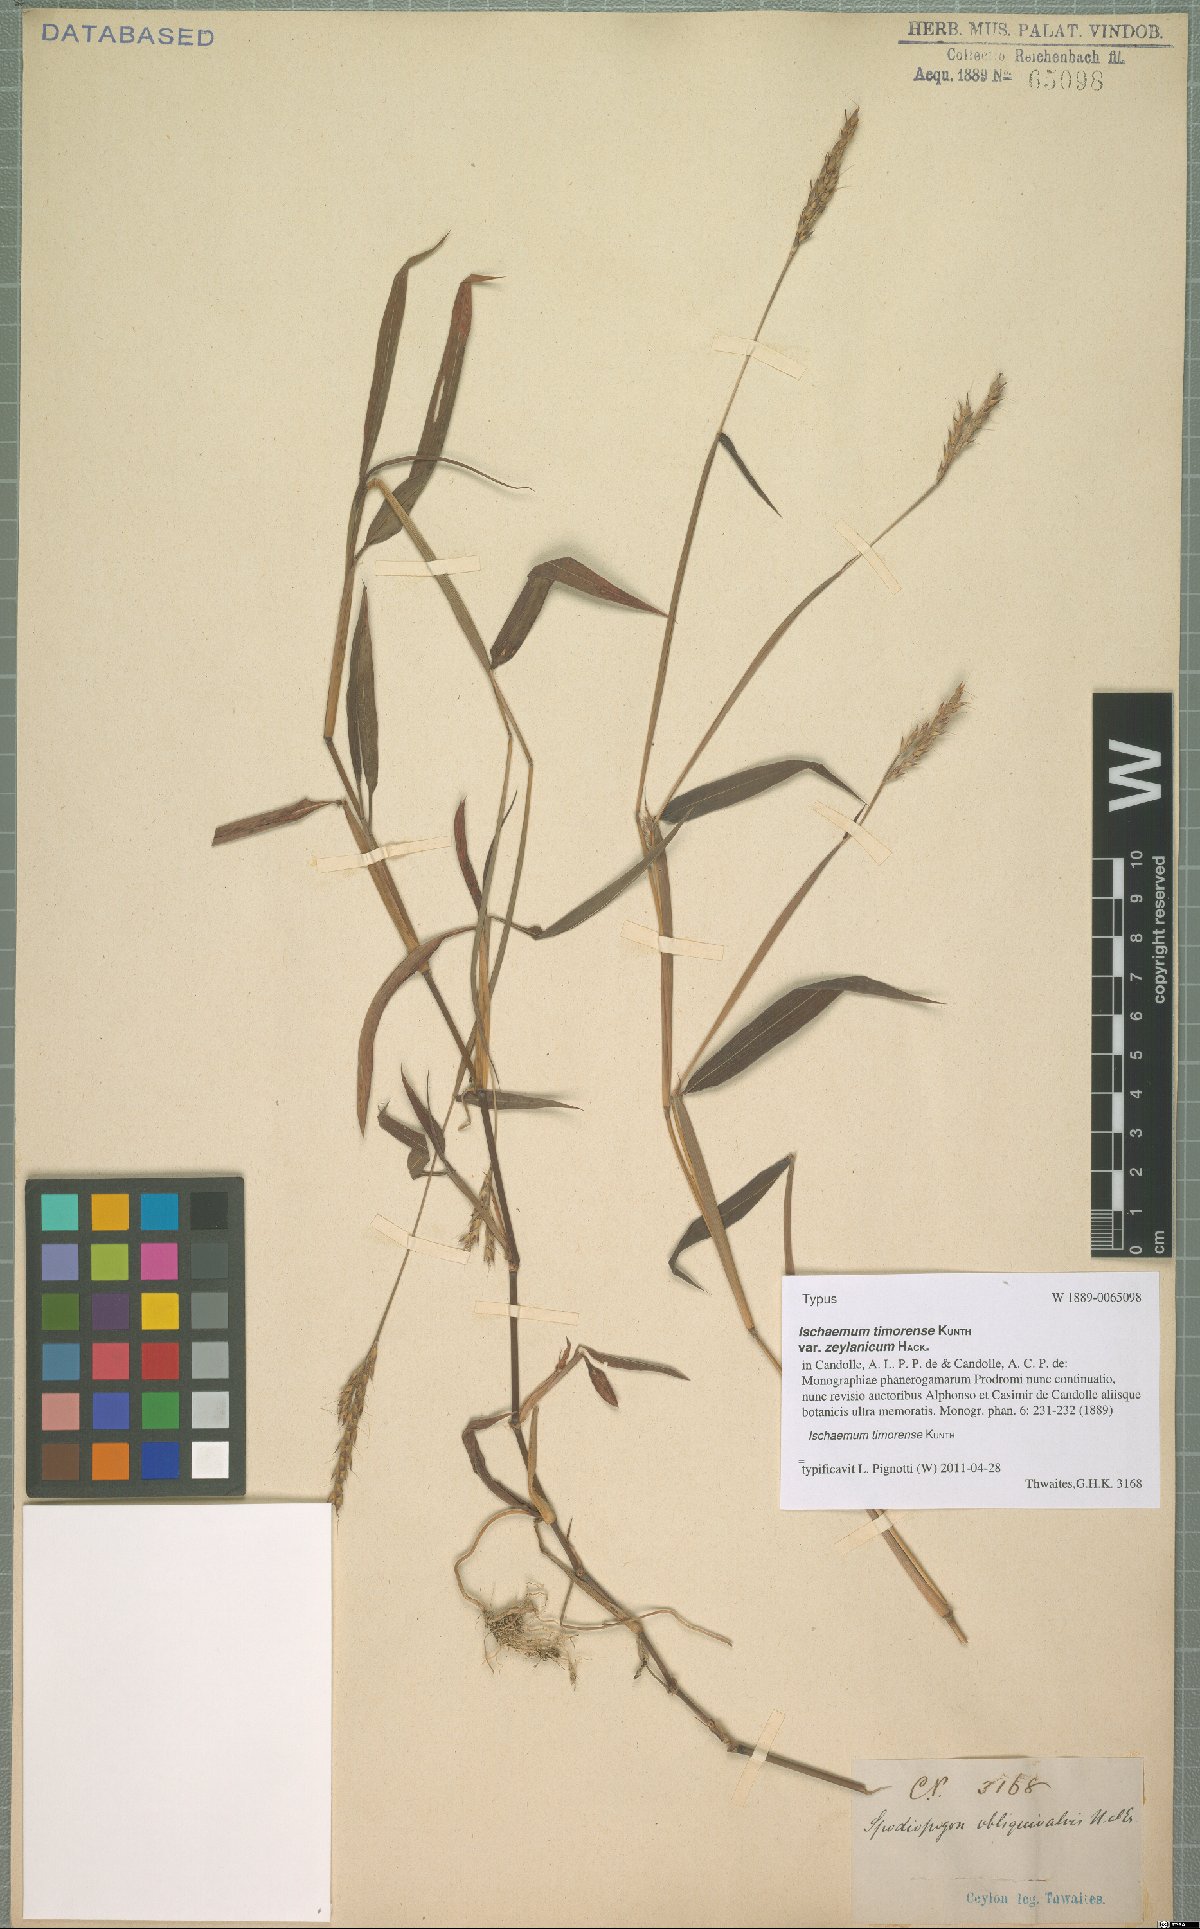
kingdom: Plantae
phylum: Tracheophyta
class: Liliopsida
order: Poales
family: Poaceae
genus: Ischaemum
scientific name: Ischaemum timorense
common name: Stalkleaf murainagrass
